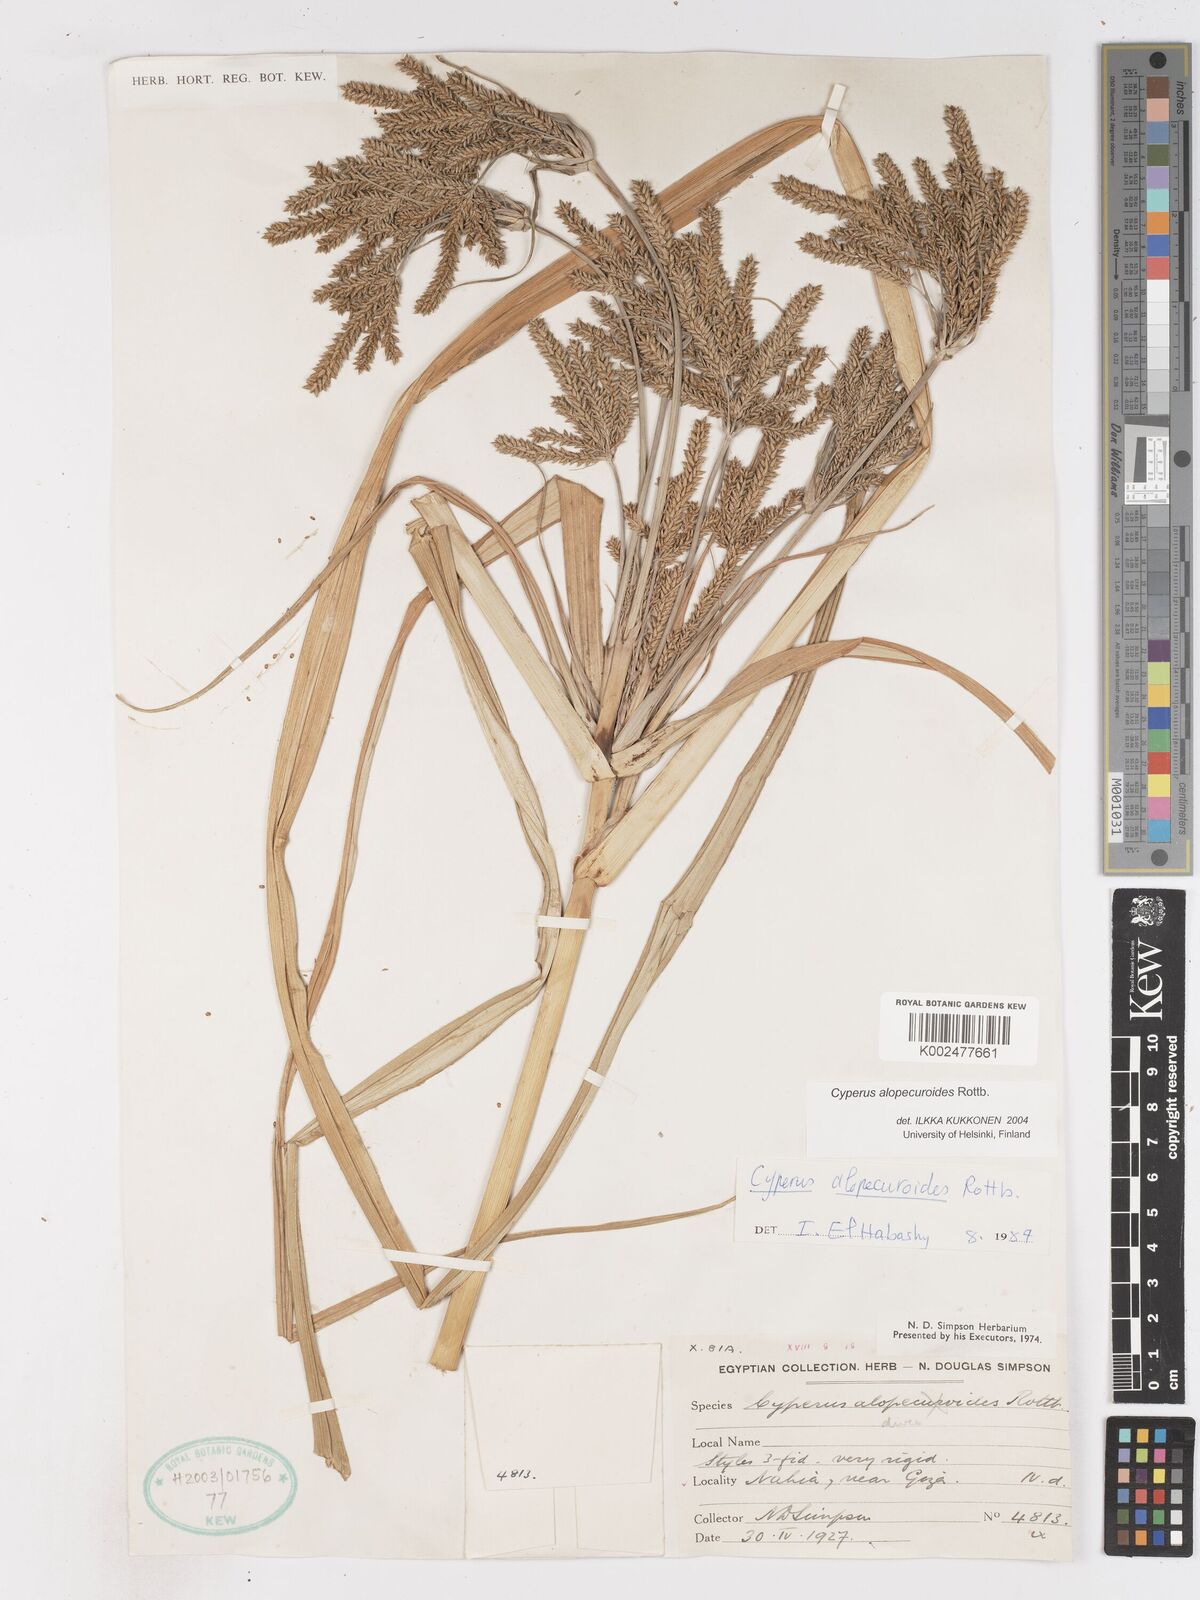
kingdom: Plantae
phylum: Tracheophyta
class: Liliopsida
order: Poales
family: Cyperaceae
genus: Cyperus
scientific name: Cyperus alopecuroides
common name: Foxtail flatsedge
